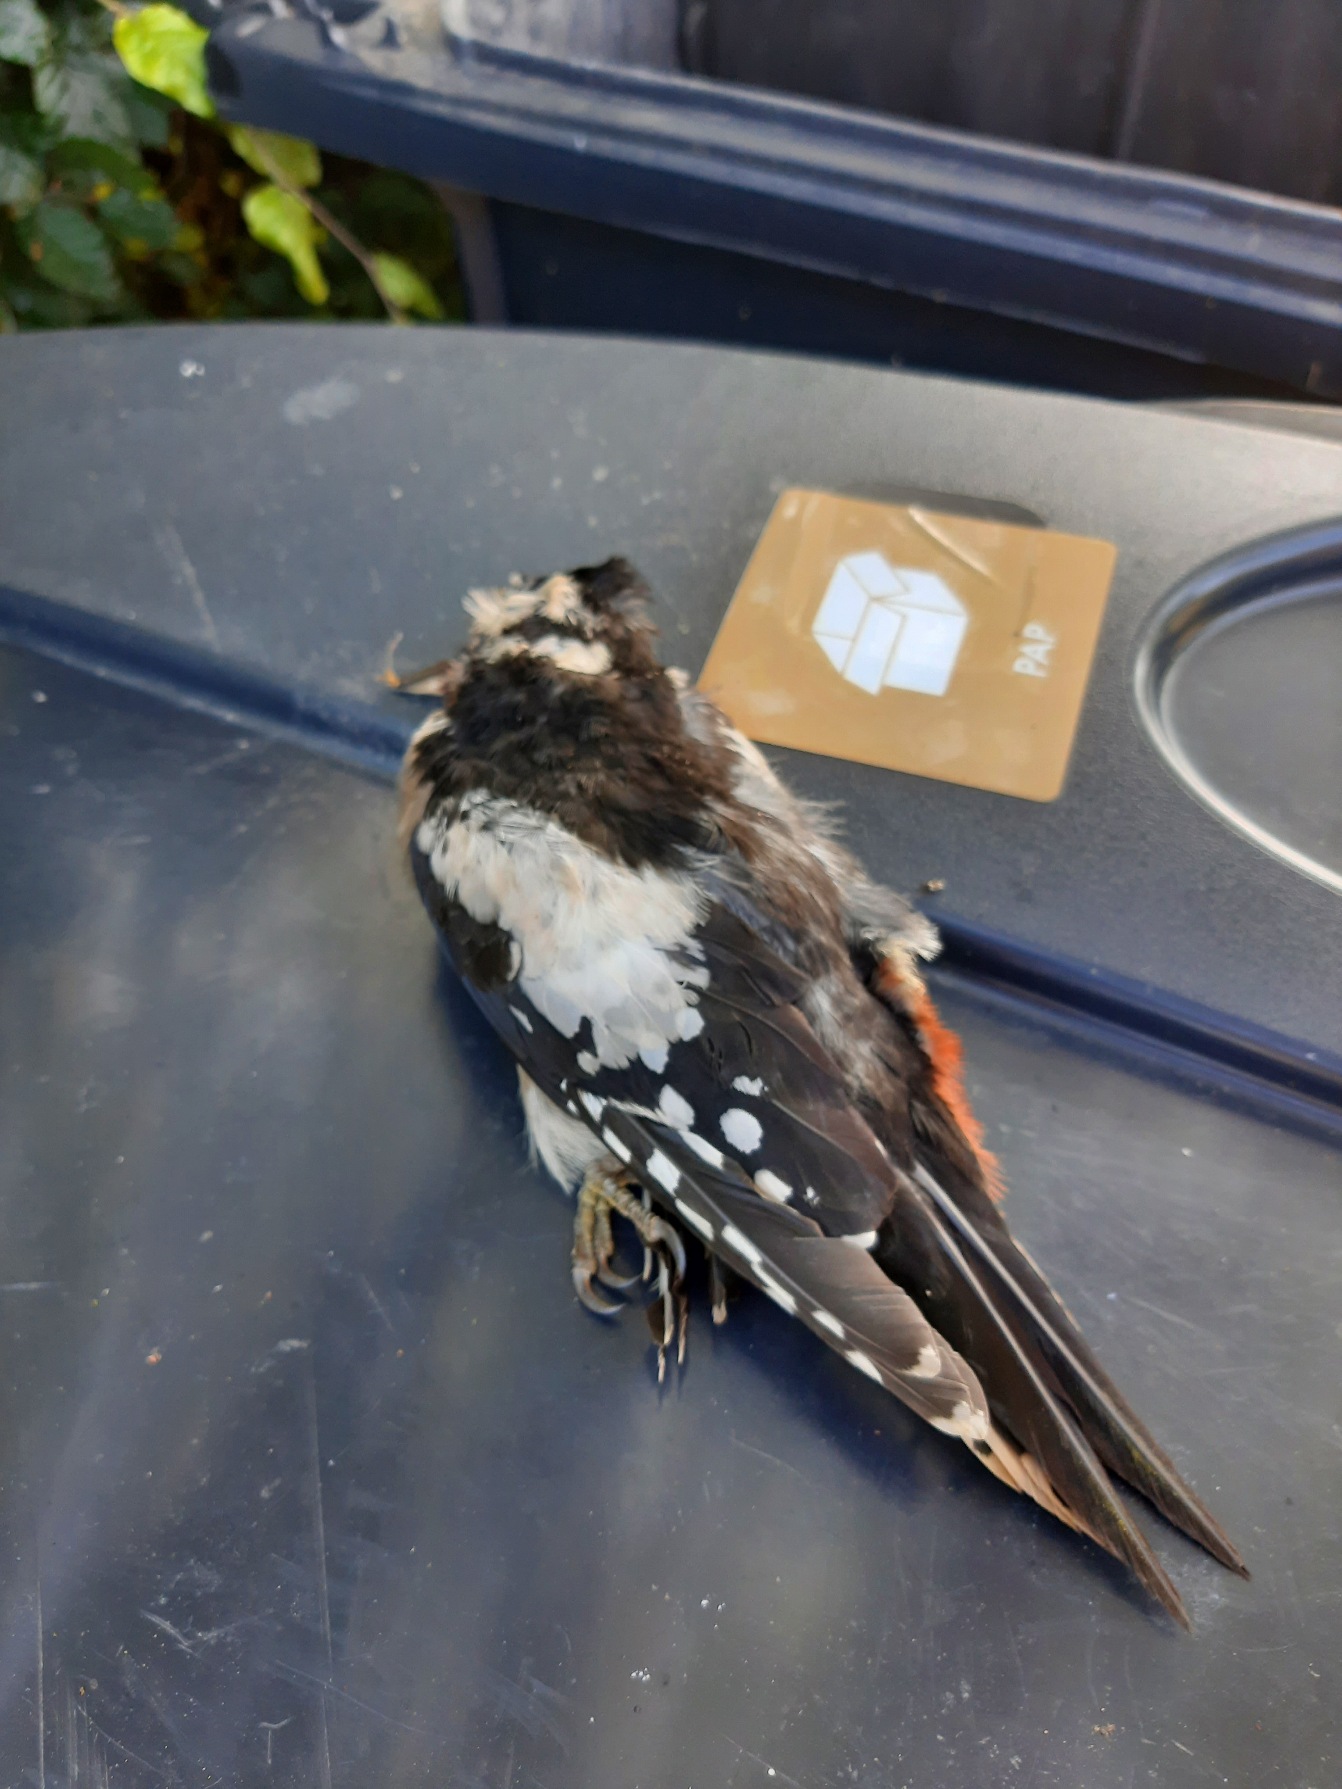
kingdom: Animalia
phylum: Chordata
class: Aves
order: Piciformes
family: Picidae
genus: Dendrocopos
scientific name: Dendrocopos major
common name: Stor flagspætte
